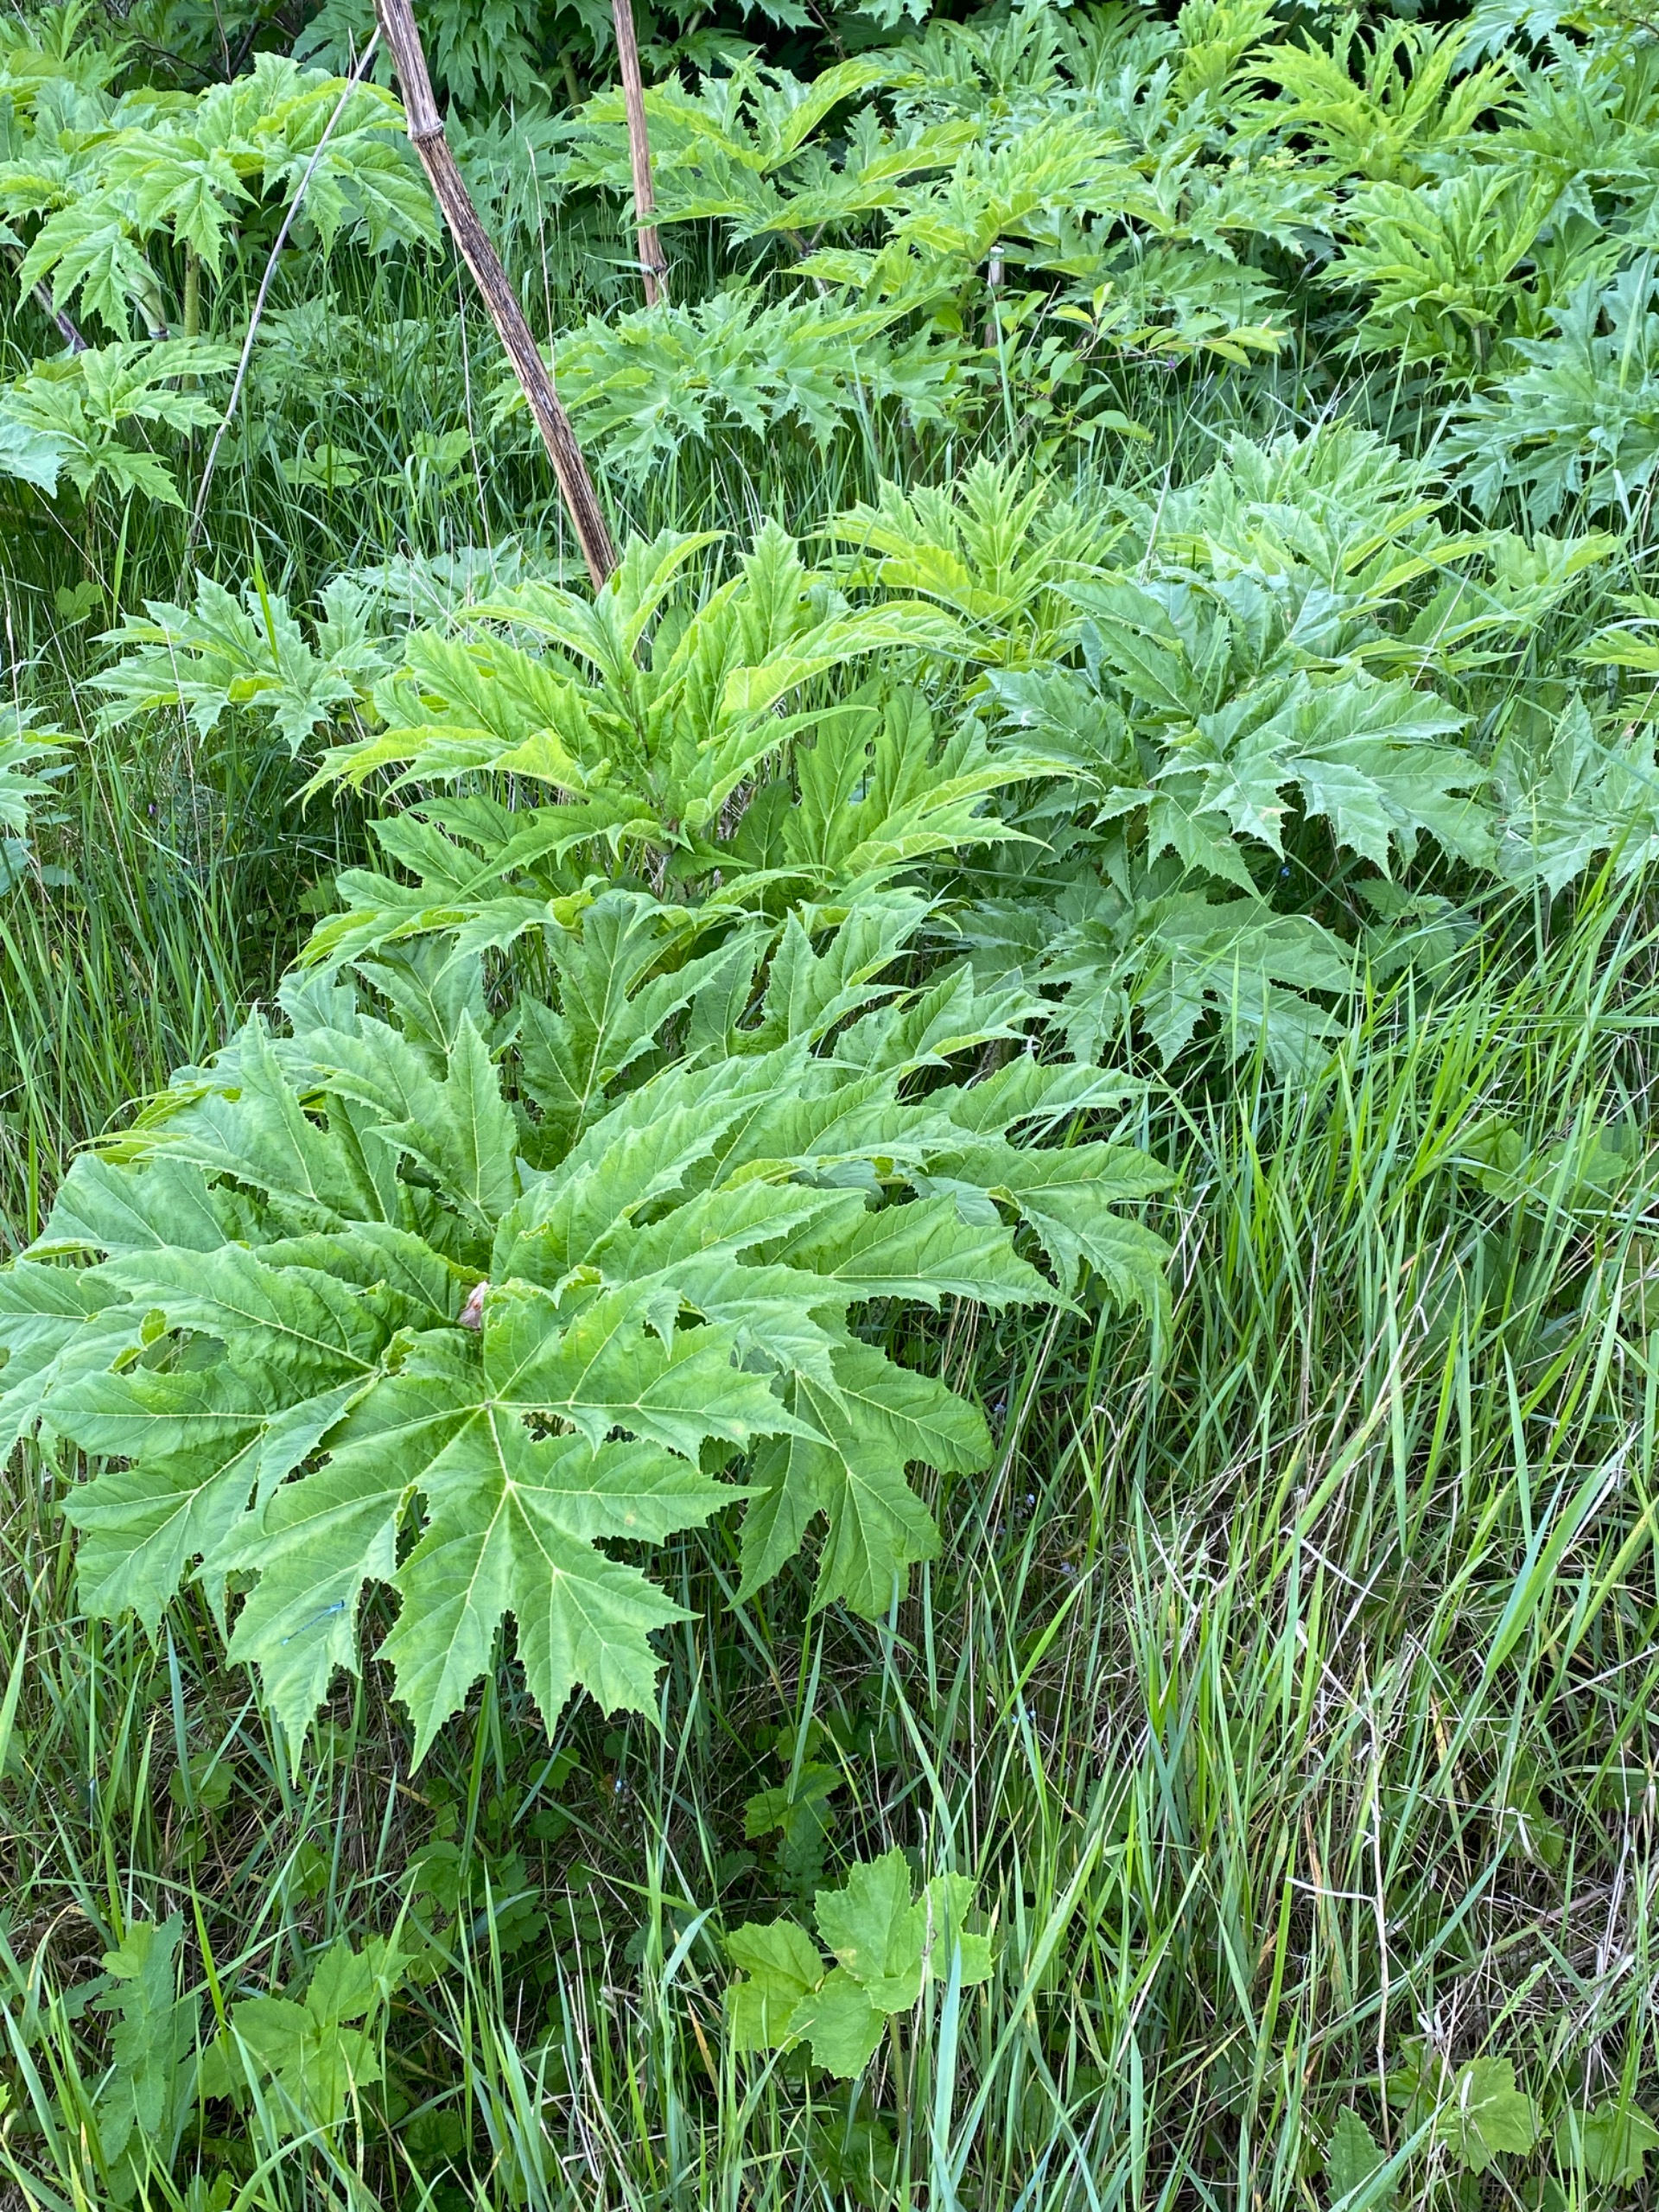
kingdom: Plantae
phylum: Tracheophyta
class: Magnoliopsida
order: Apiales
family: Apiaceae
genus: Heracleum
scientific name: Heracleum mantegazzianum
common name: Kæmpe-bjørneklo
